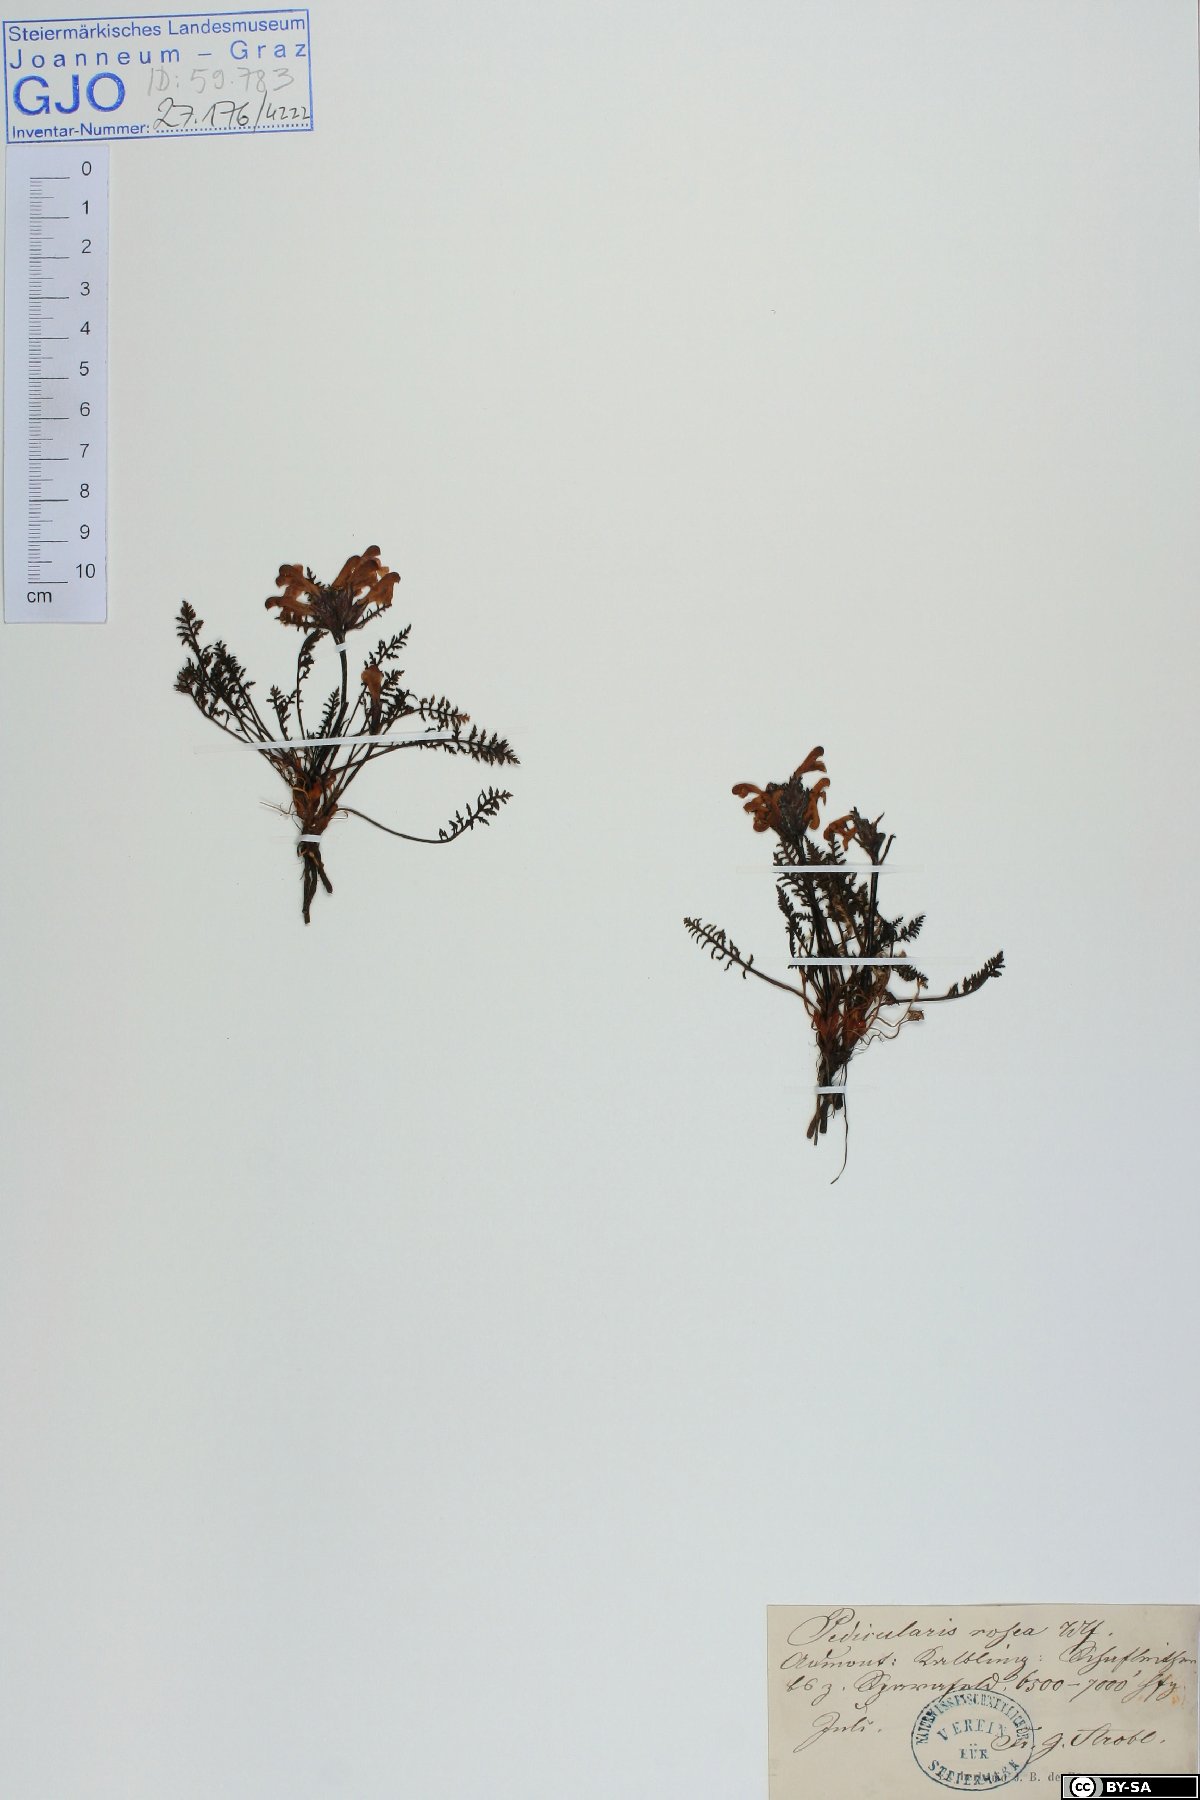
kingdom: Plantae
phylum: Tracheophyta
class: Magnoliopsida
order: Lamiales
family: Orobanchaceae
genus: Pedicularis
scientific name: Pedicularis rosea
